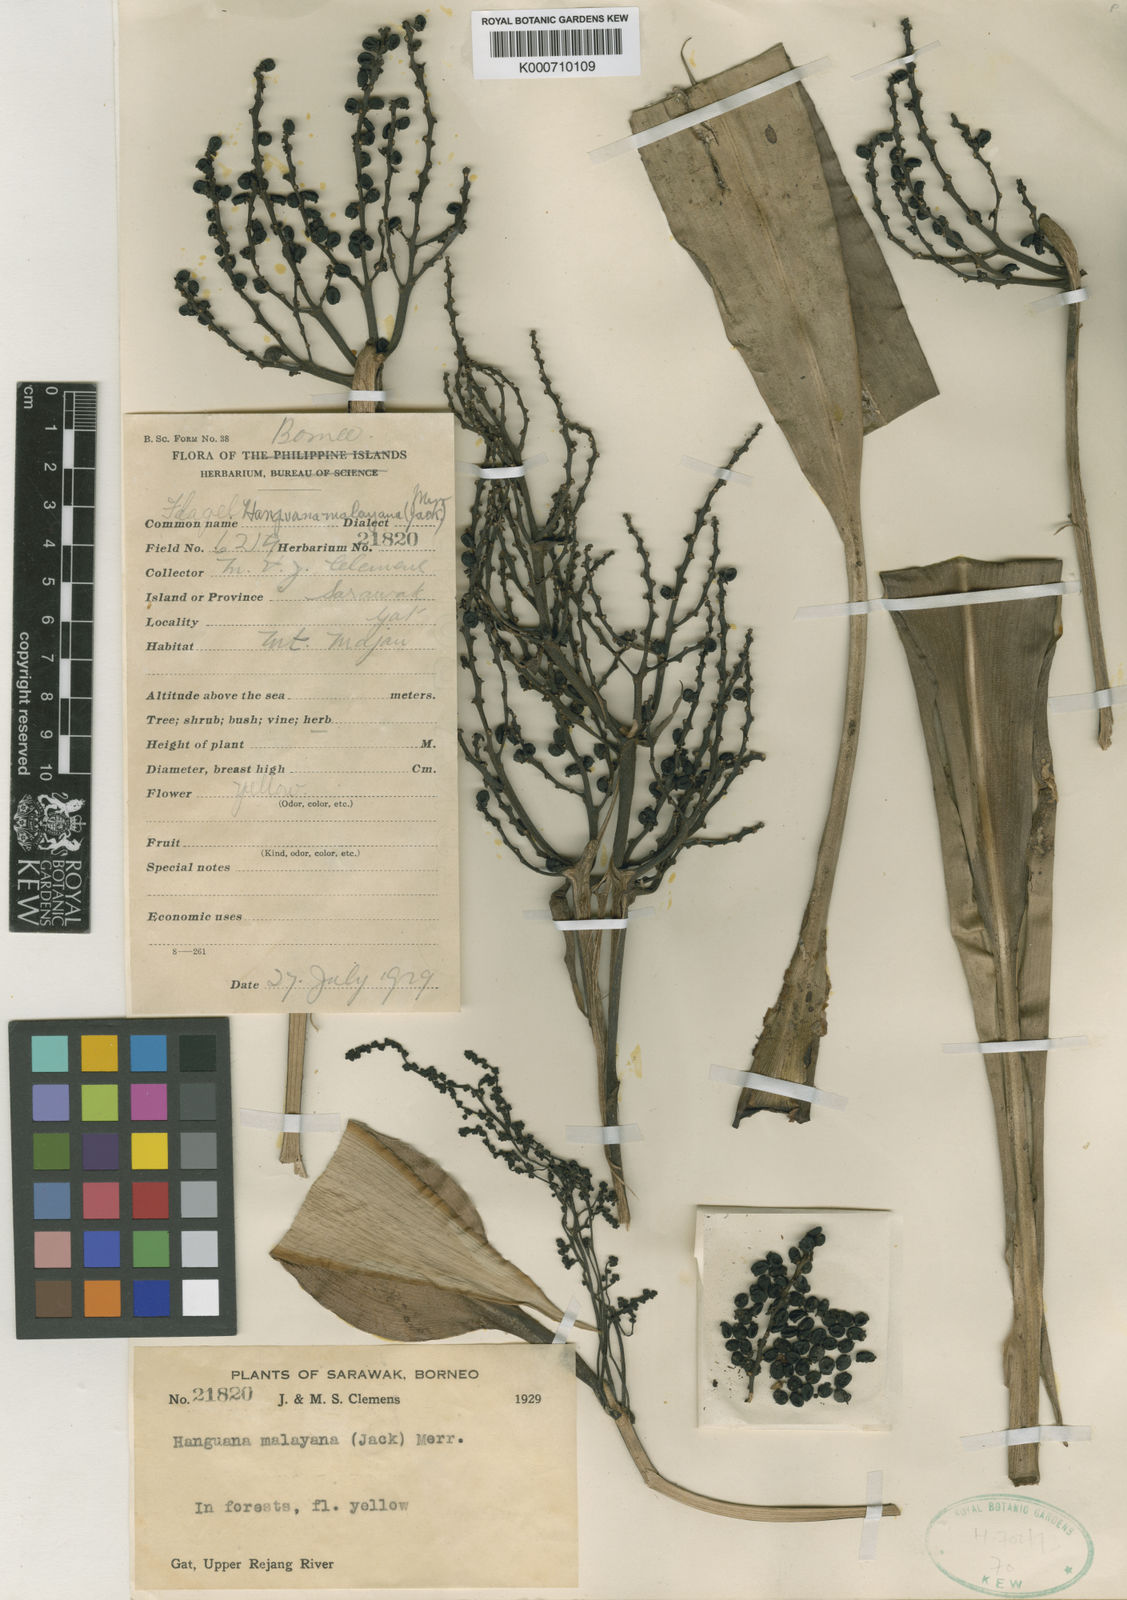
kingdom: Plantae
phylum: Tracheophyta
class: Liliopsida
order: Commelinales
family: Hanguanaceae
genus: Hanguana
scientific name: Hanguana malayana
